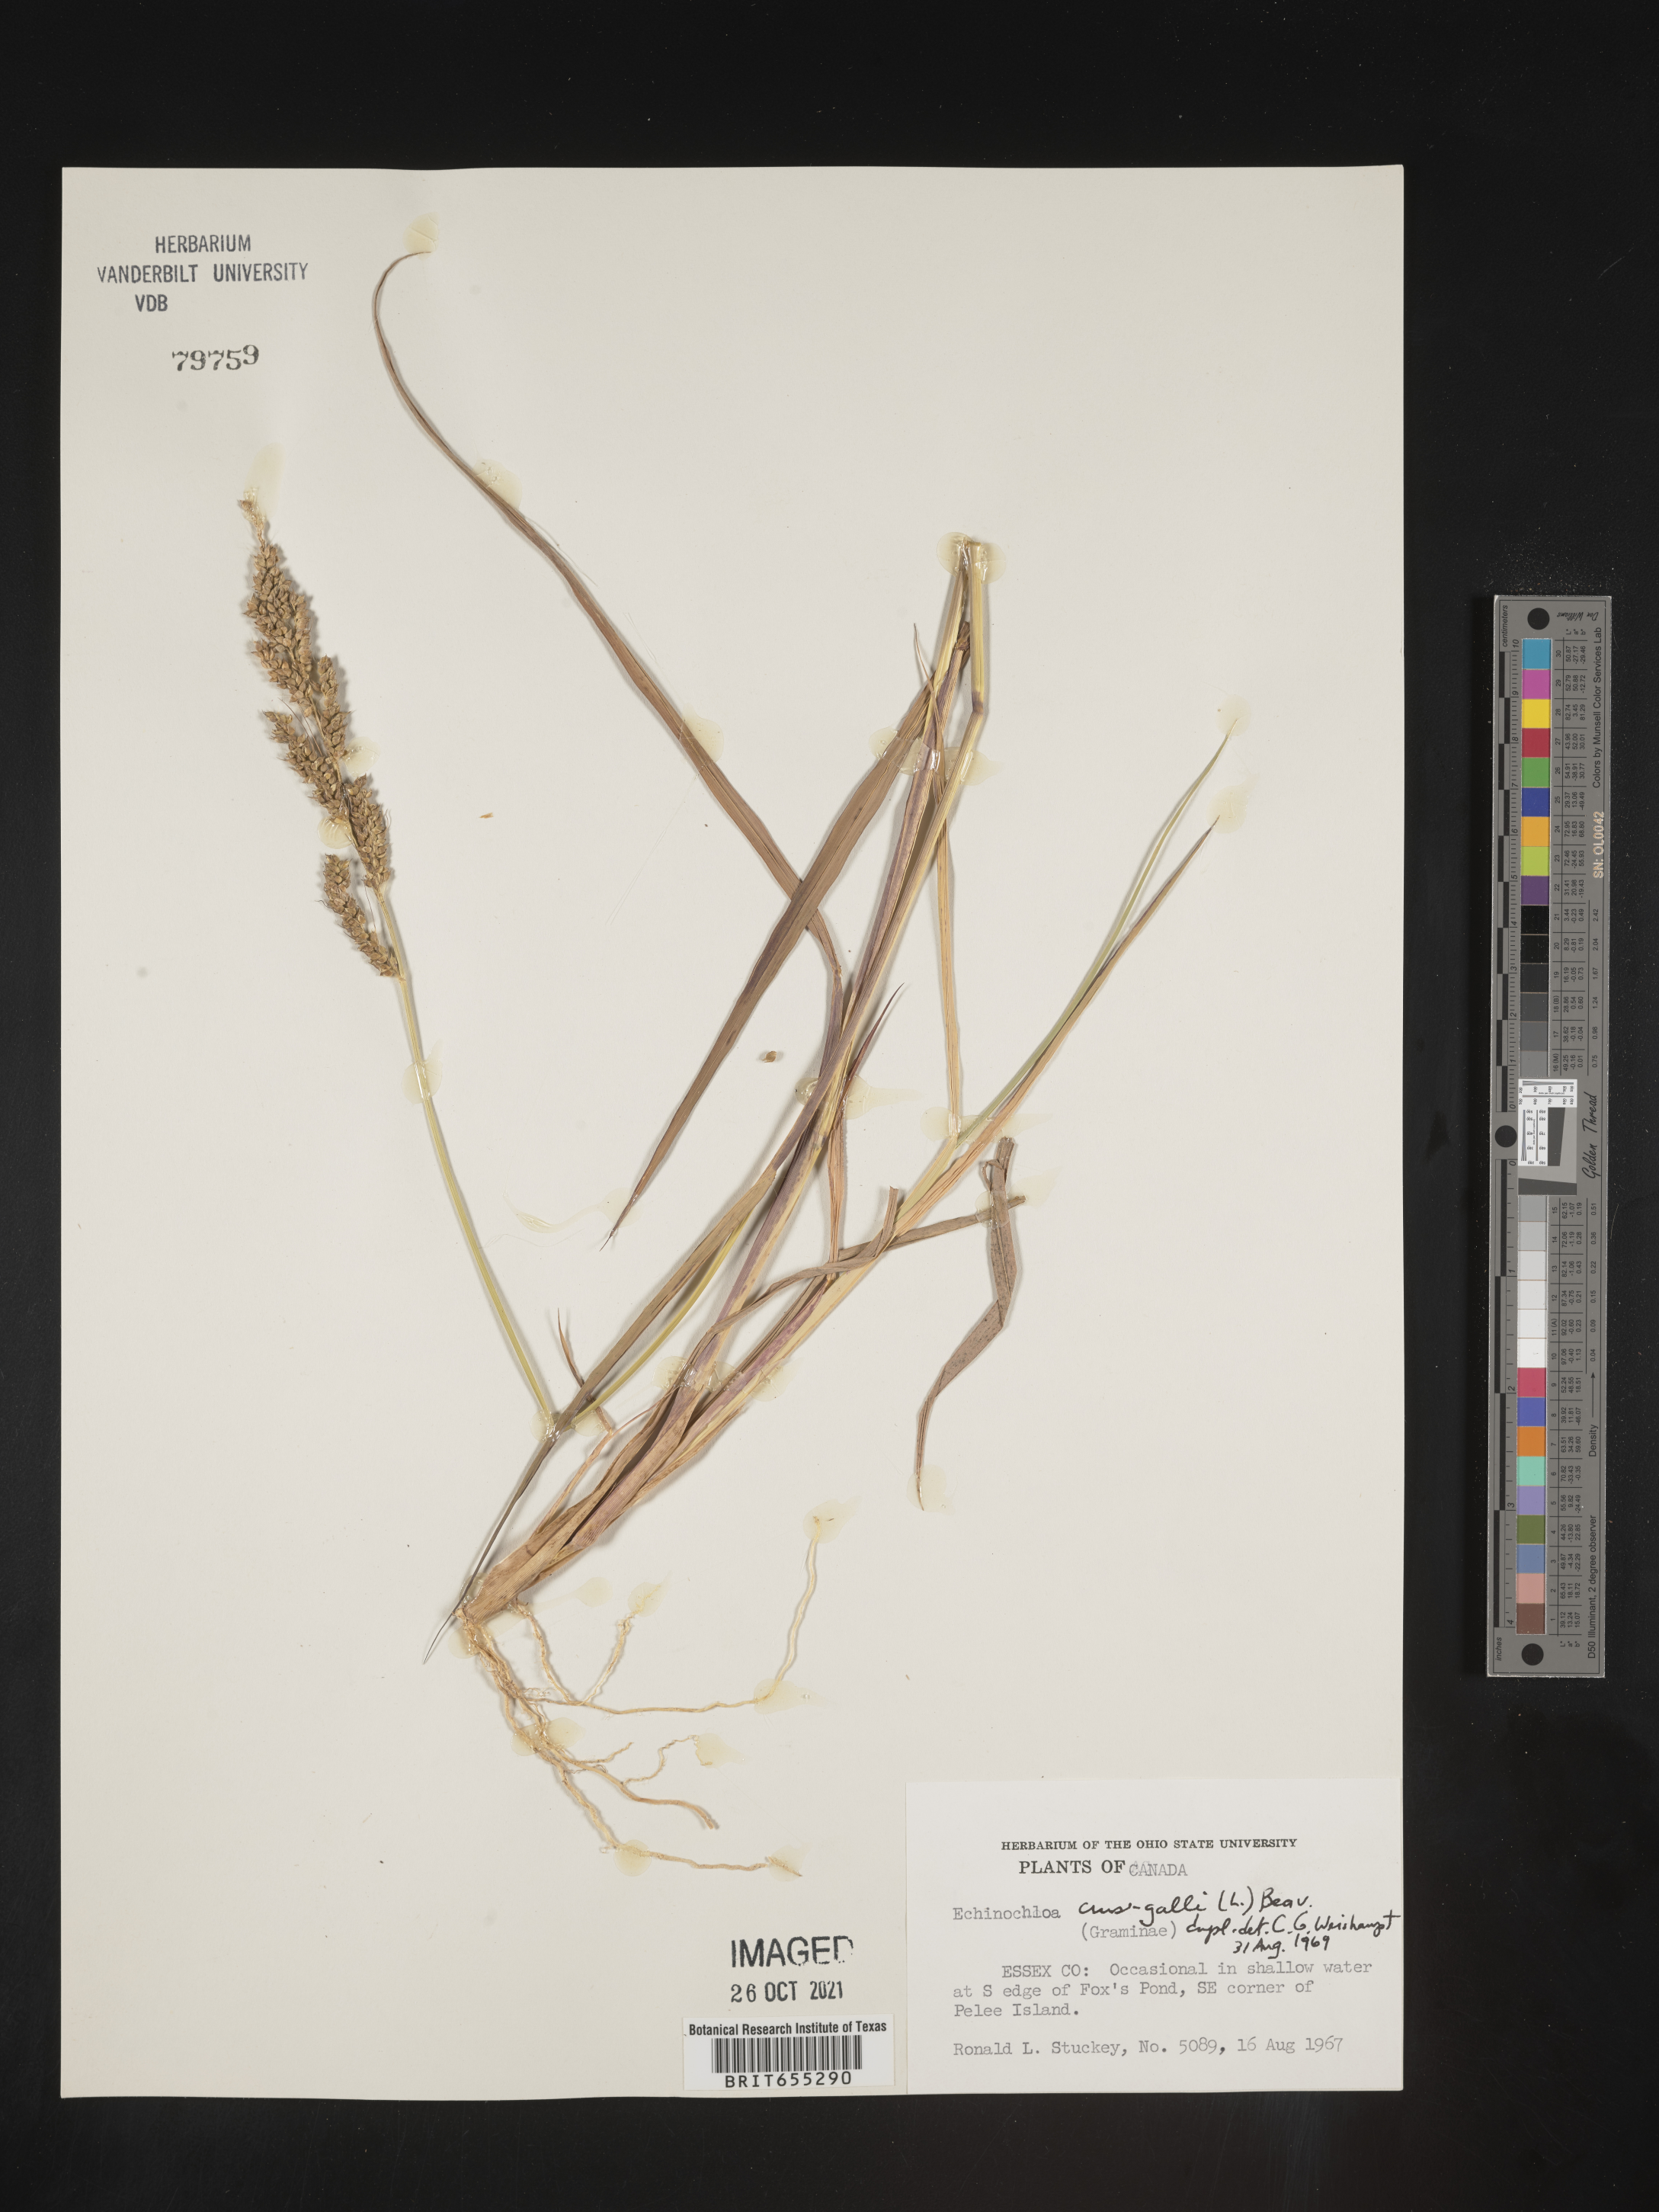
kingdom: Plantae
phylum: Tracheophyta
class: Liliopsida
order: Poales
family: Poaceae
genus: Echinochloa
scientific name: Echinochloa
